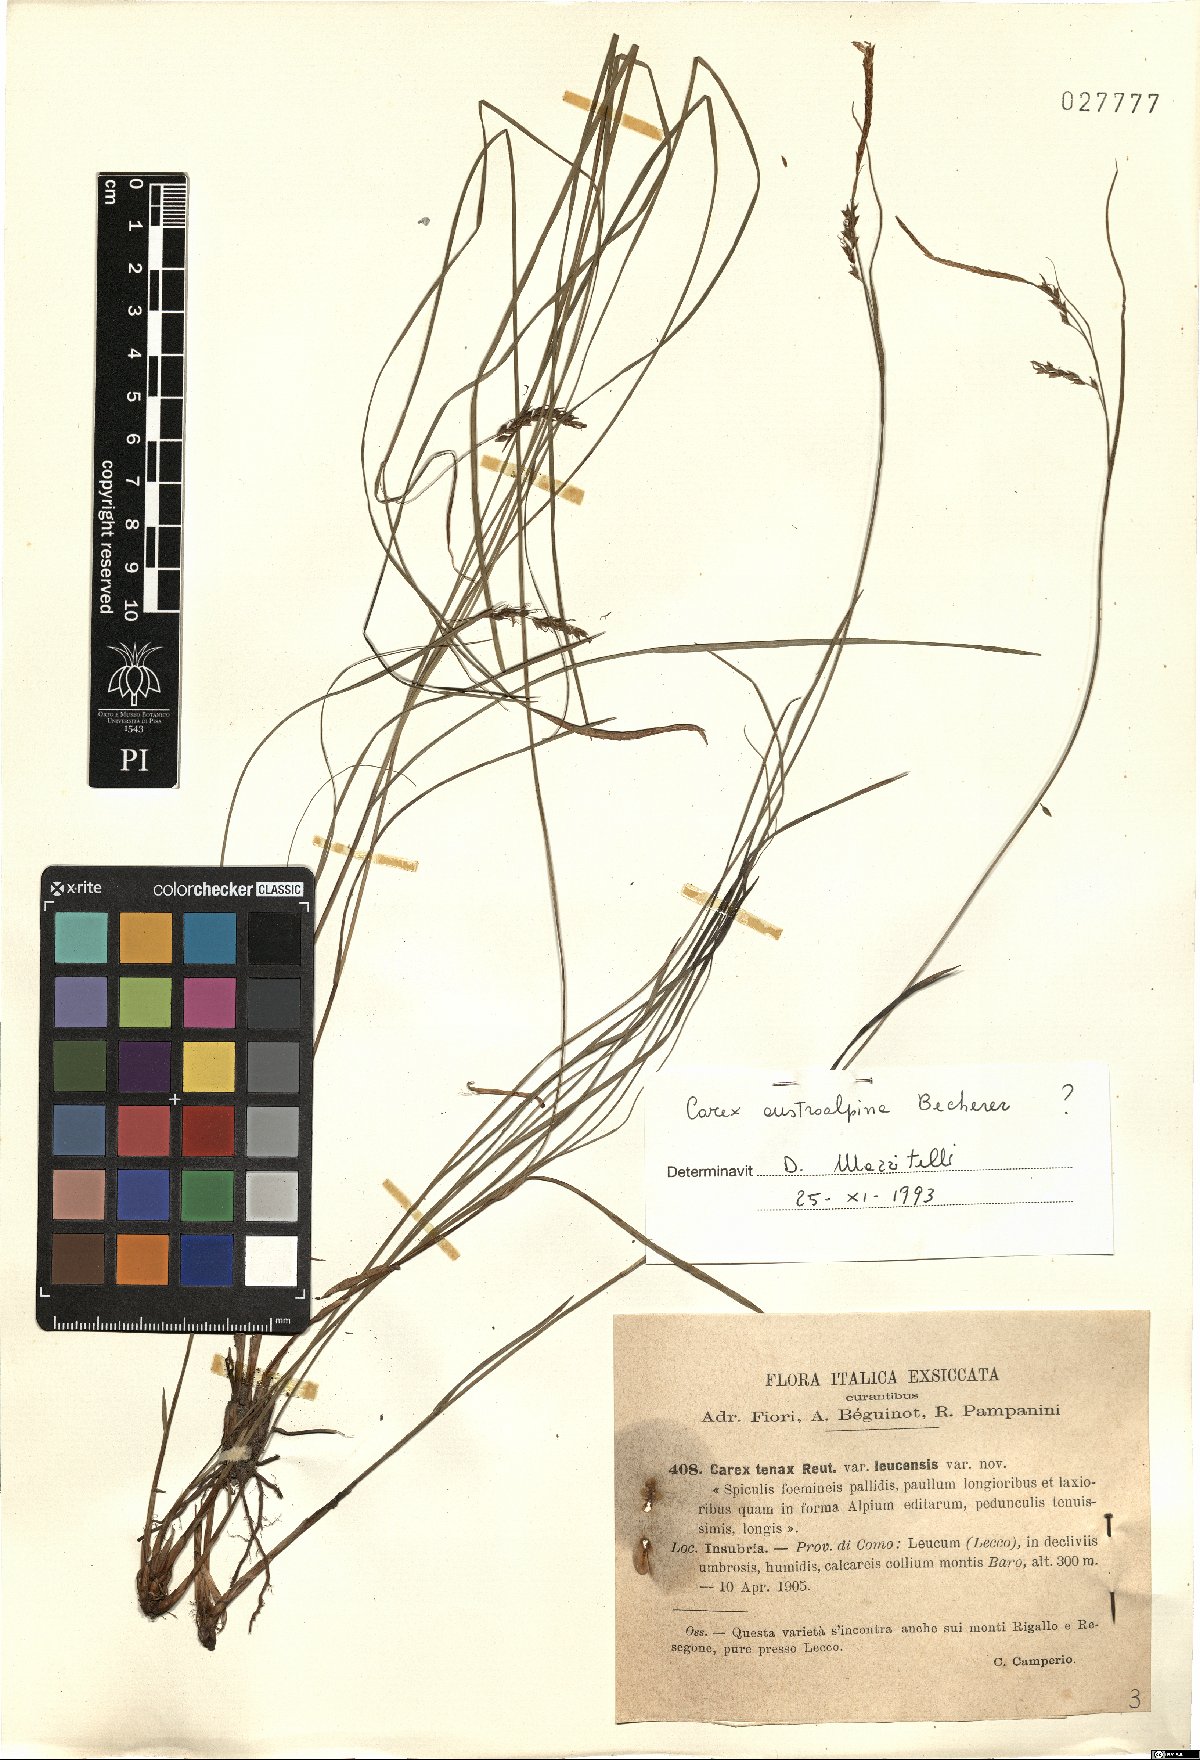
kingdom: Plantae
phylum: Tracheophyta
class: Liliopsida
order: Poales
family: Cyperaceae
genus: Carex
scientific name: Carex austroalpina
